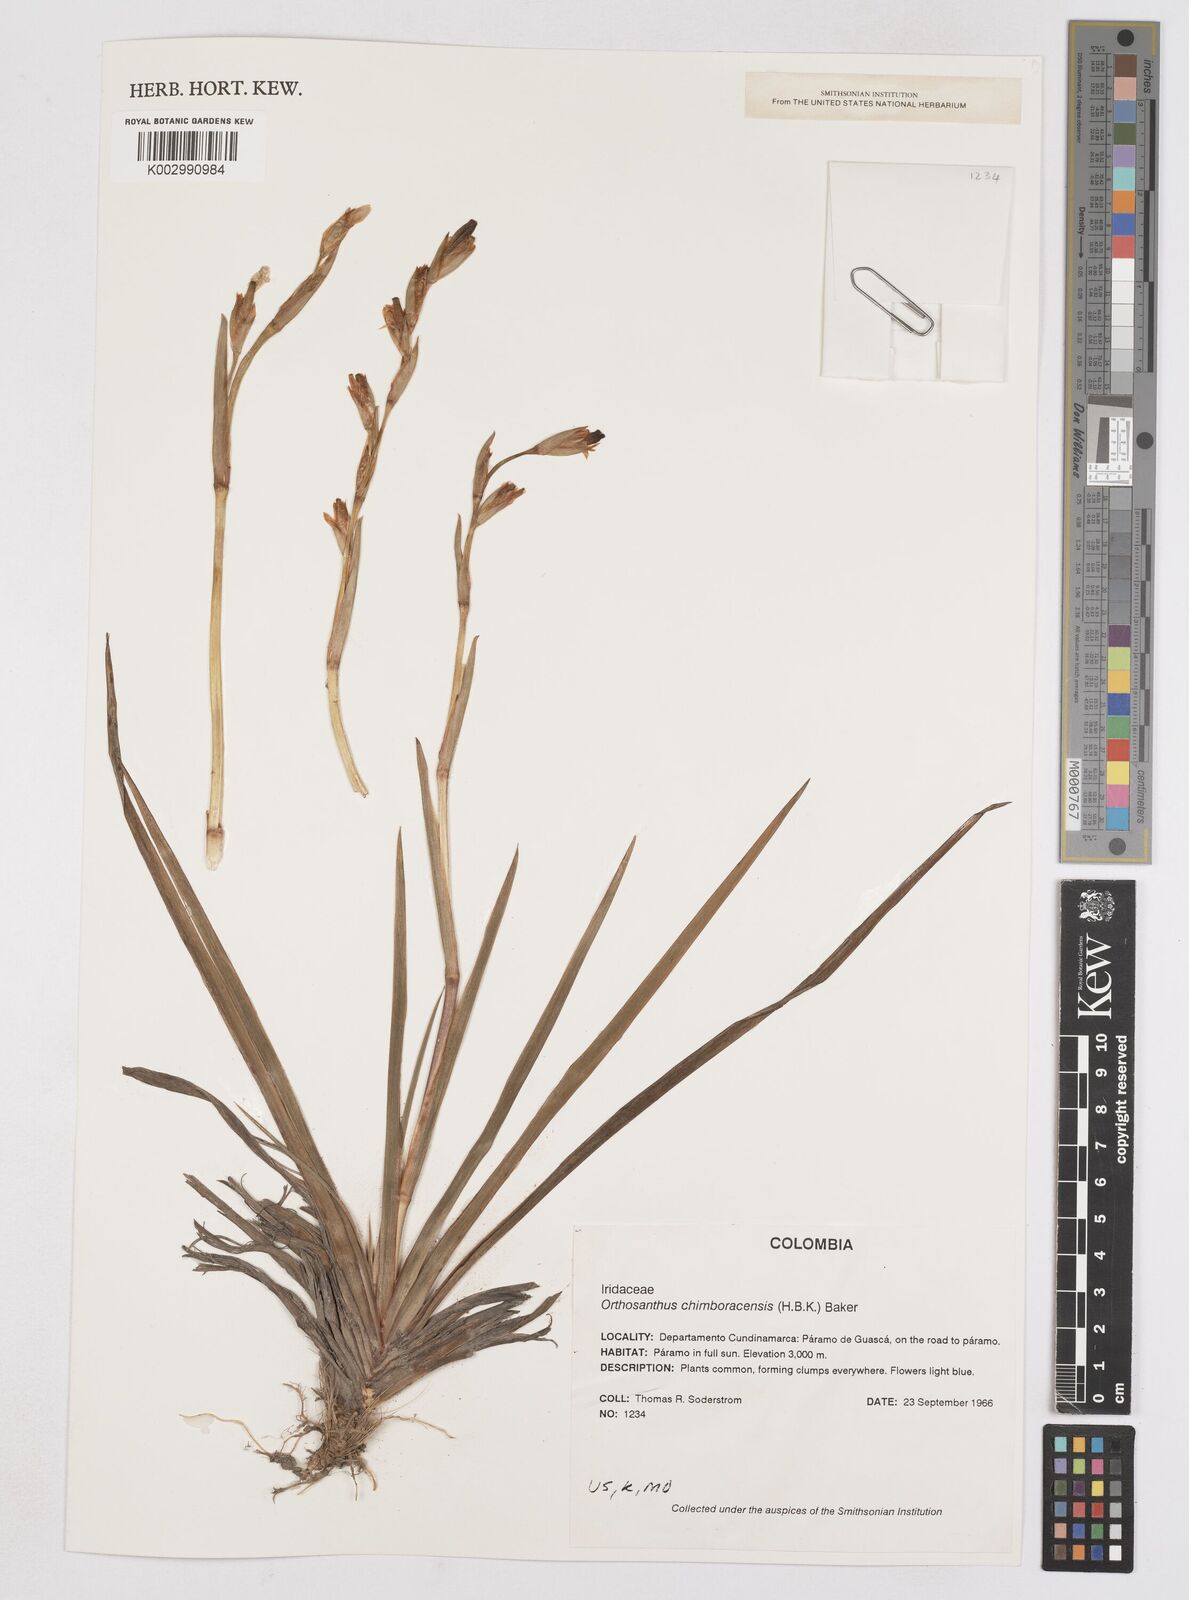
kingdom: Plantae
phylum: Tracheophyta
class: Liliopsida
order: Asparagales
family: Iridaceae
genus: Orthrosanthus
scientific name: Orthrosanthus chimboracensis
